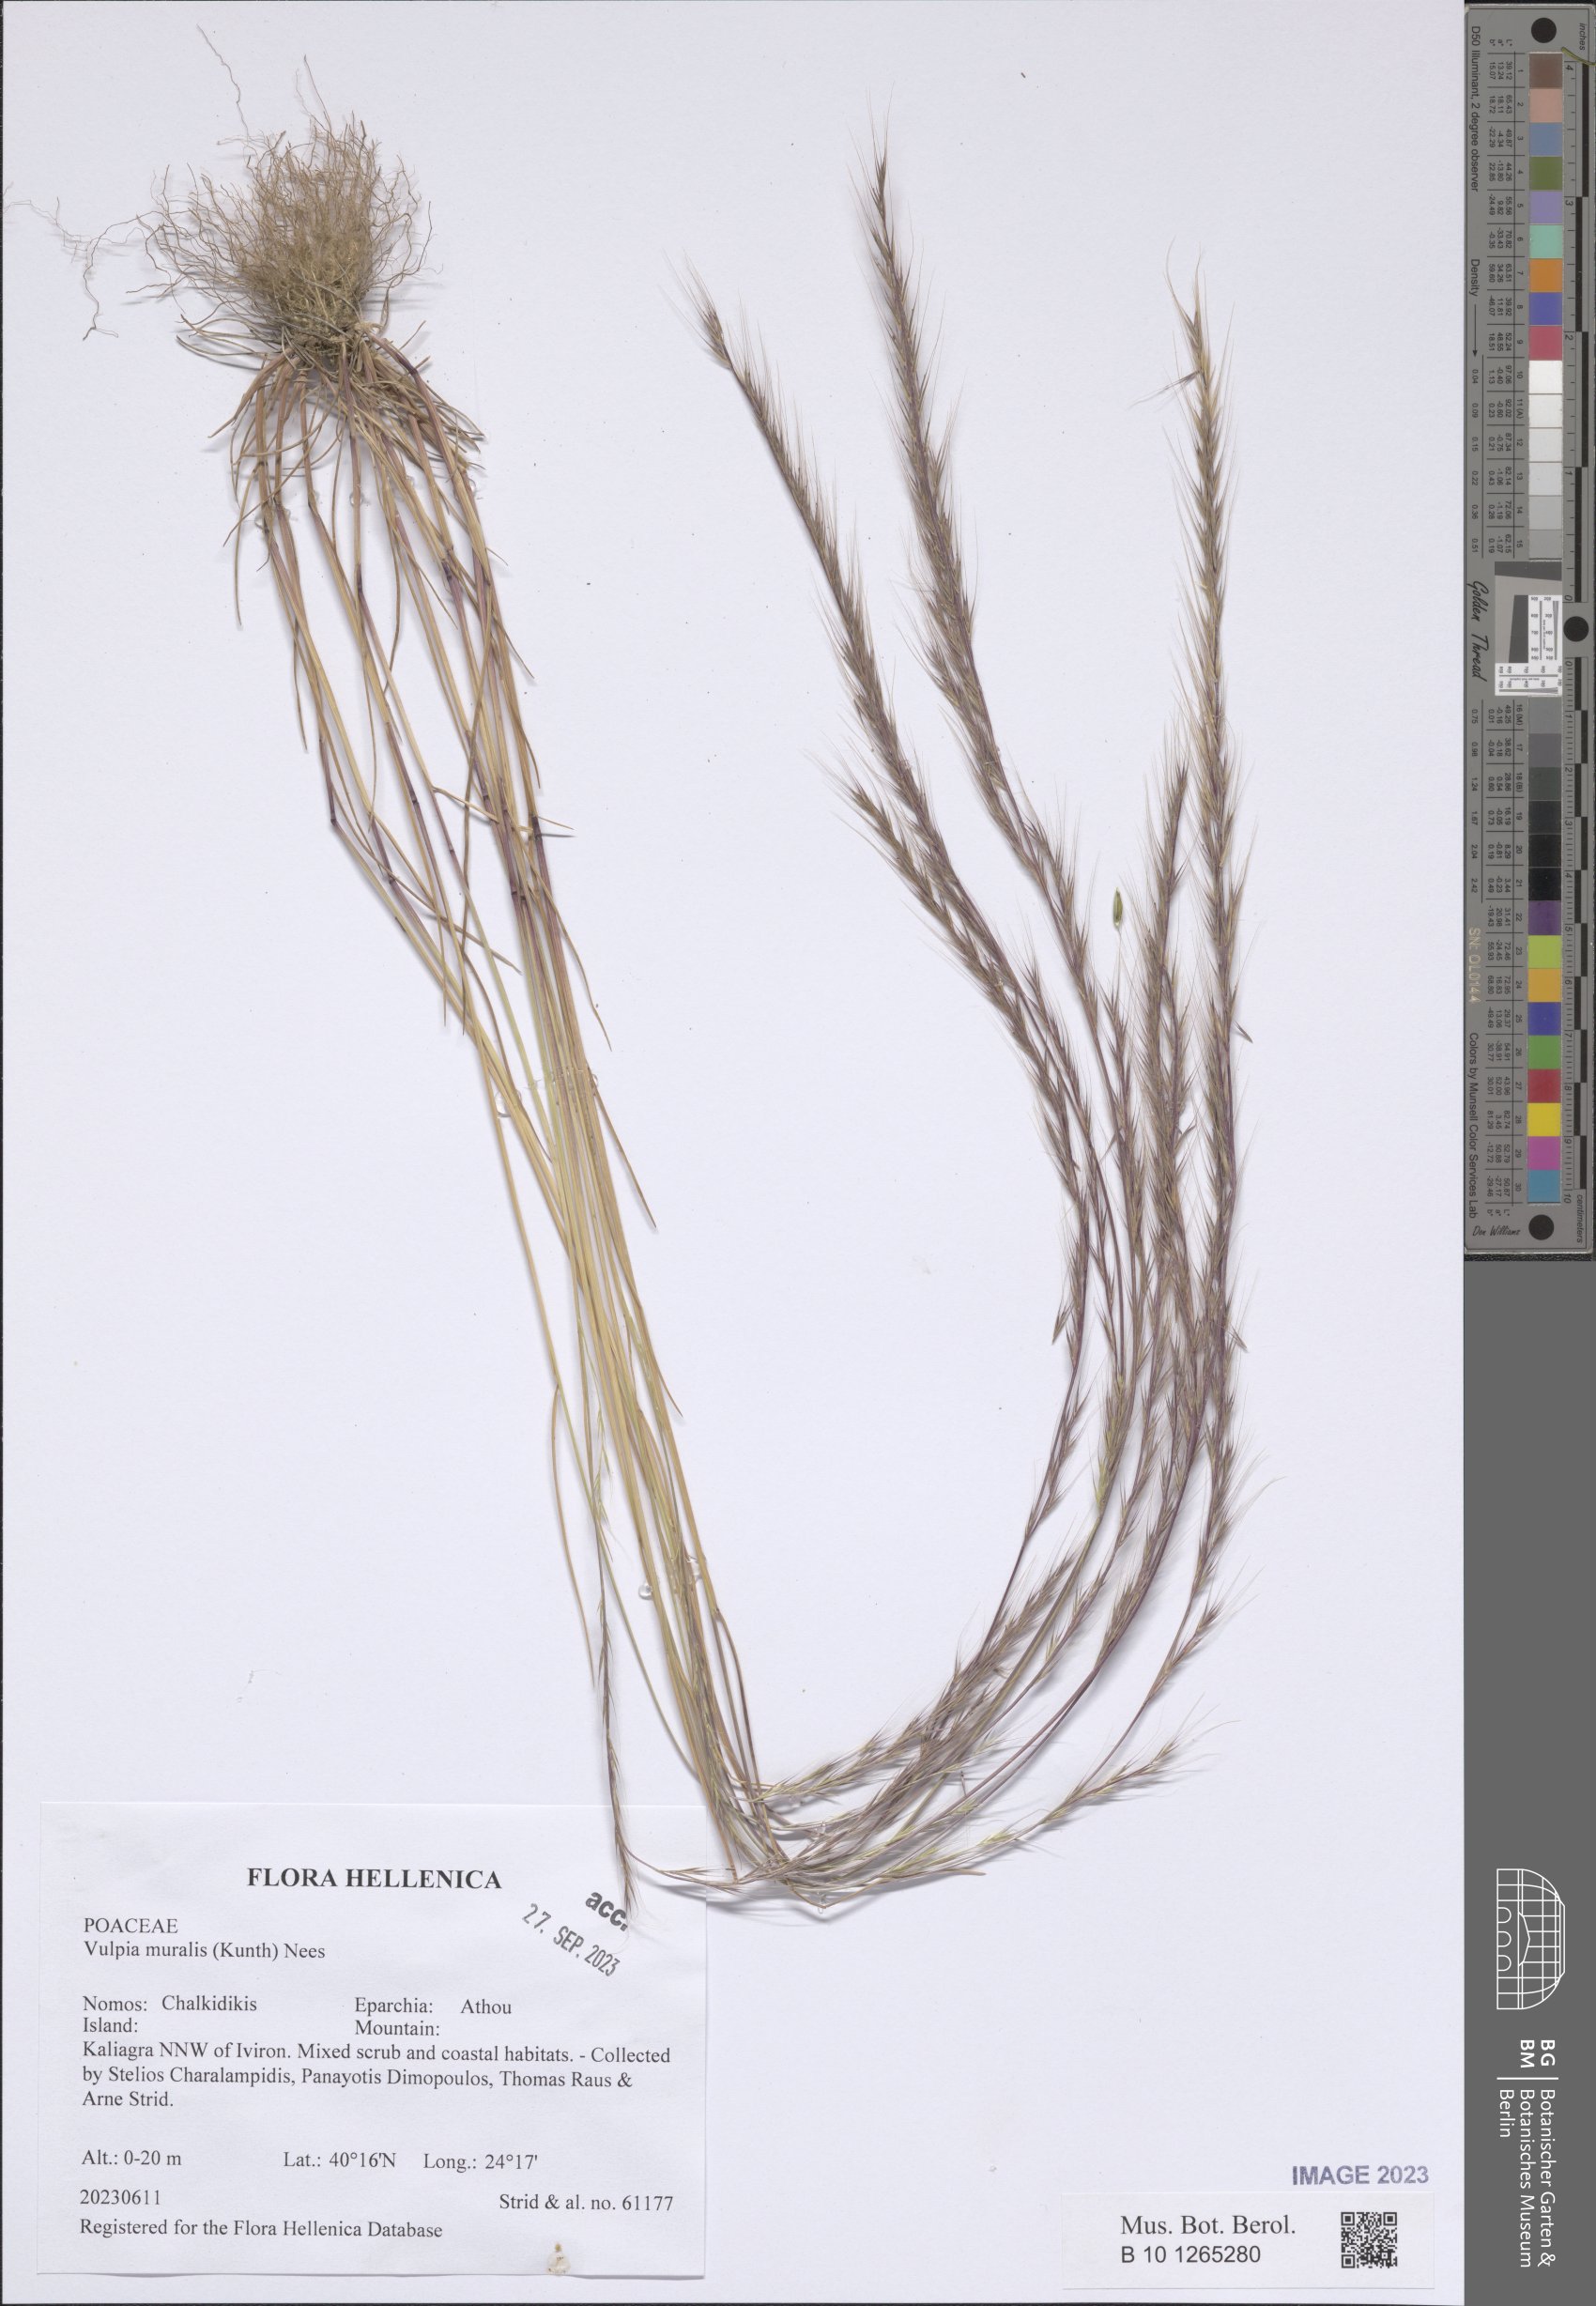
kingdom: Plantae
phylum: Tracheophyta
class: Liliopsida
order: Poales
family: Poaceae
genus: Festuca
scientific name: Festuca muralis
